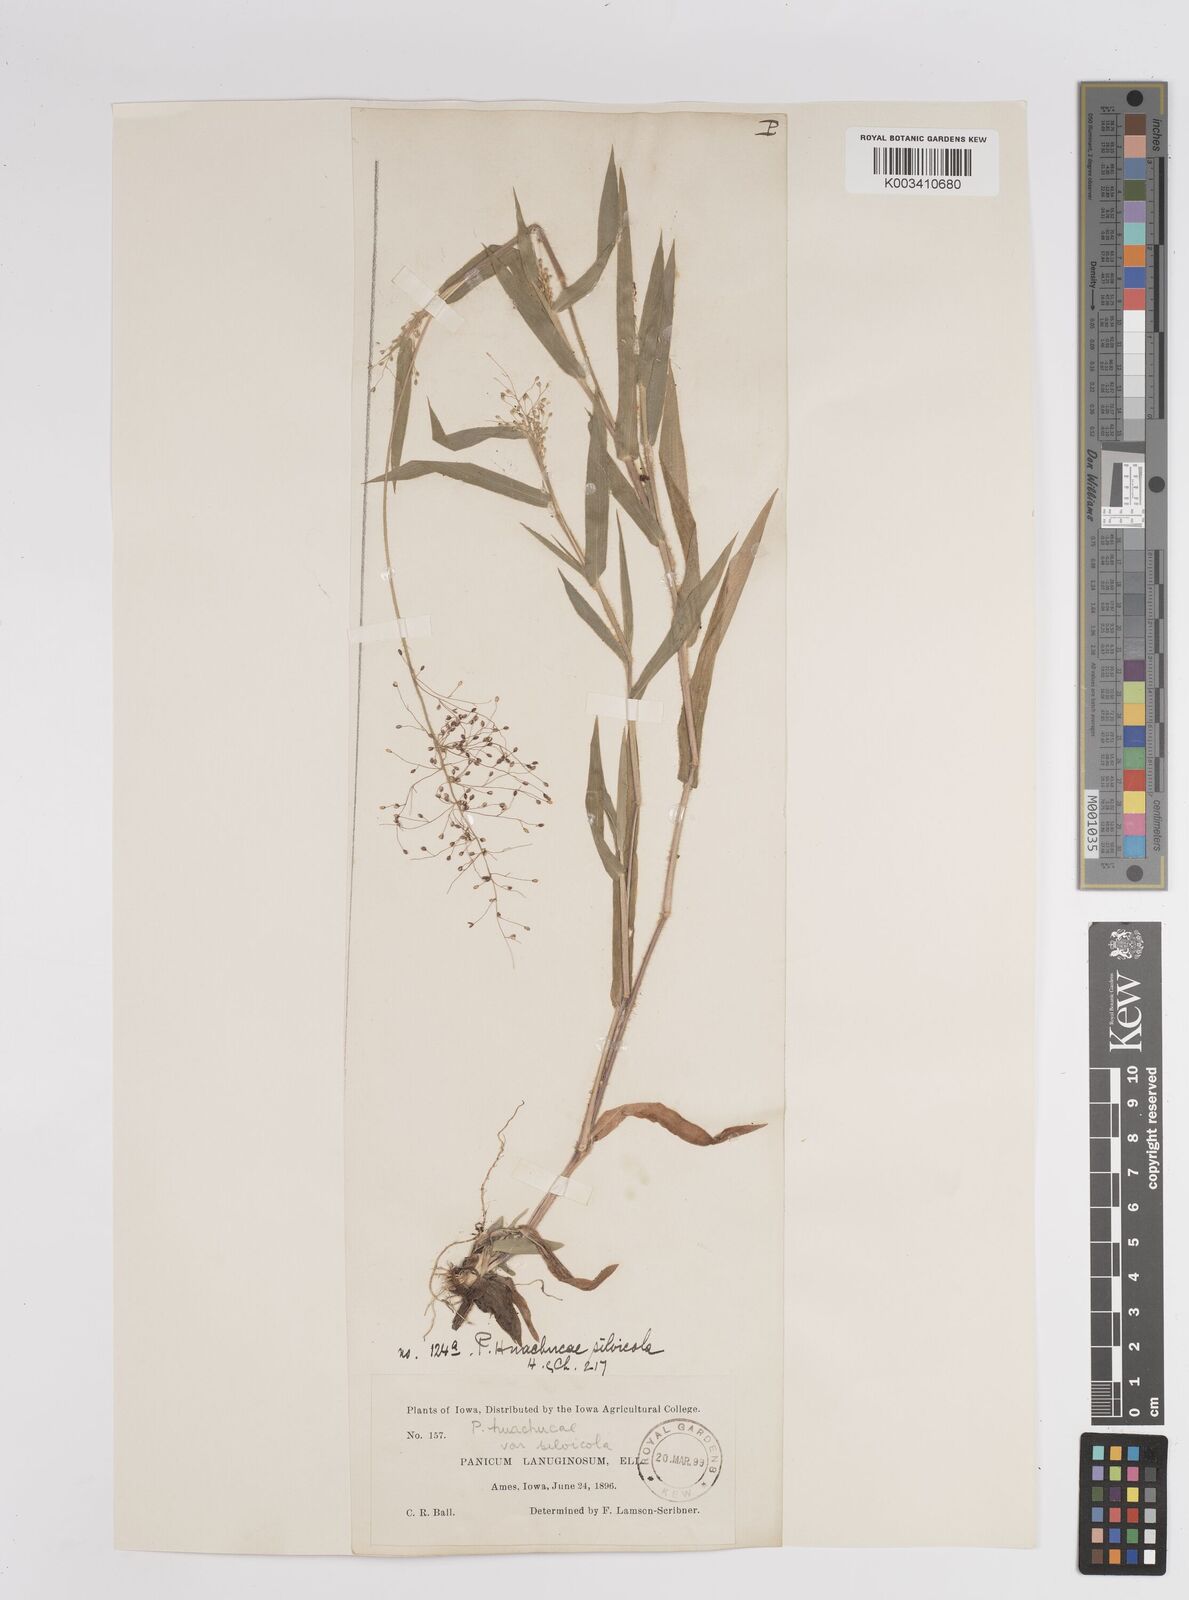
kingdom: Plantae
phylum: Tracheophyta
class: Liliopsida
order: Poales
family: Poaceae
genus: Dichanthelium
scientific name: Dichanthelium lanuginosum
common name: Woolly panicgrass
